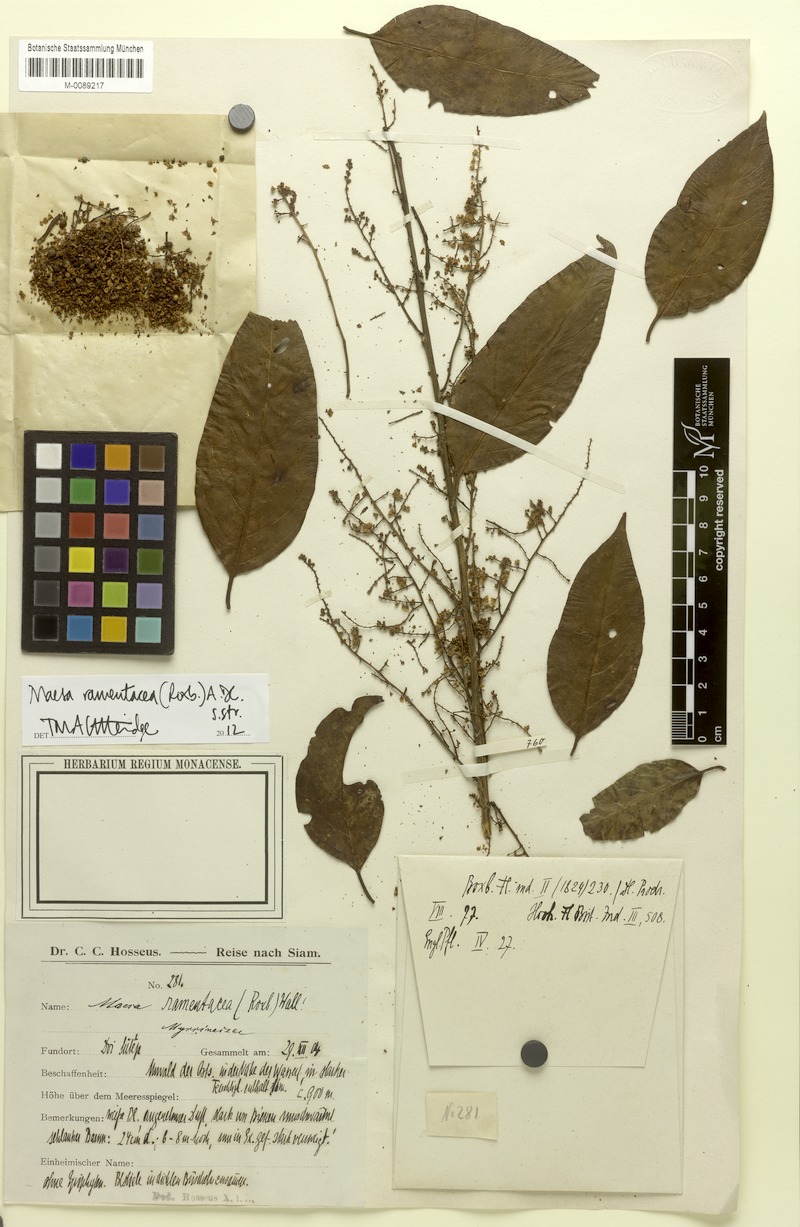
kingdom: Plantae
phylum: Tracheophyta
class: Magnoliopsida
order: Ericales
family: Primulaceae
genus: Maesa
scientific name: Maesa ramentacea
